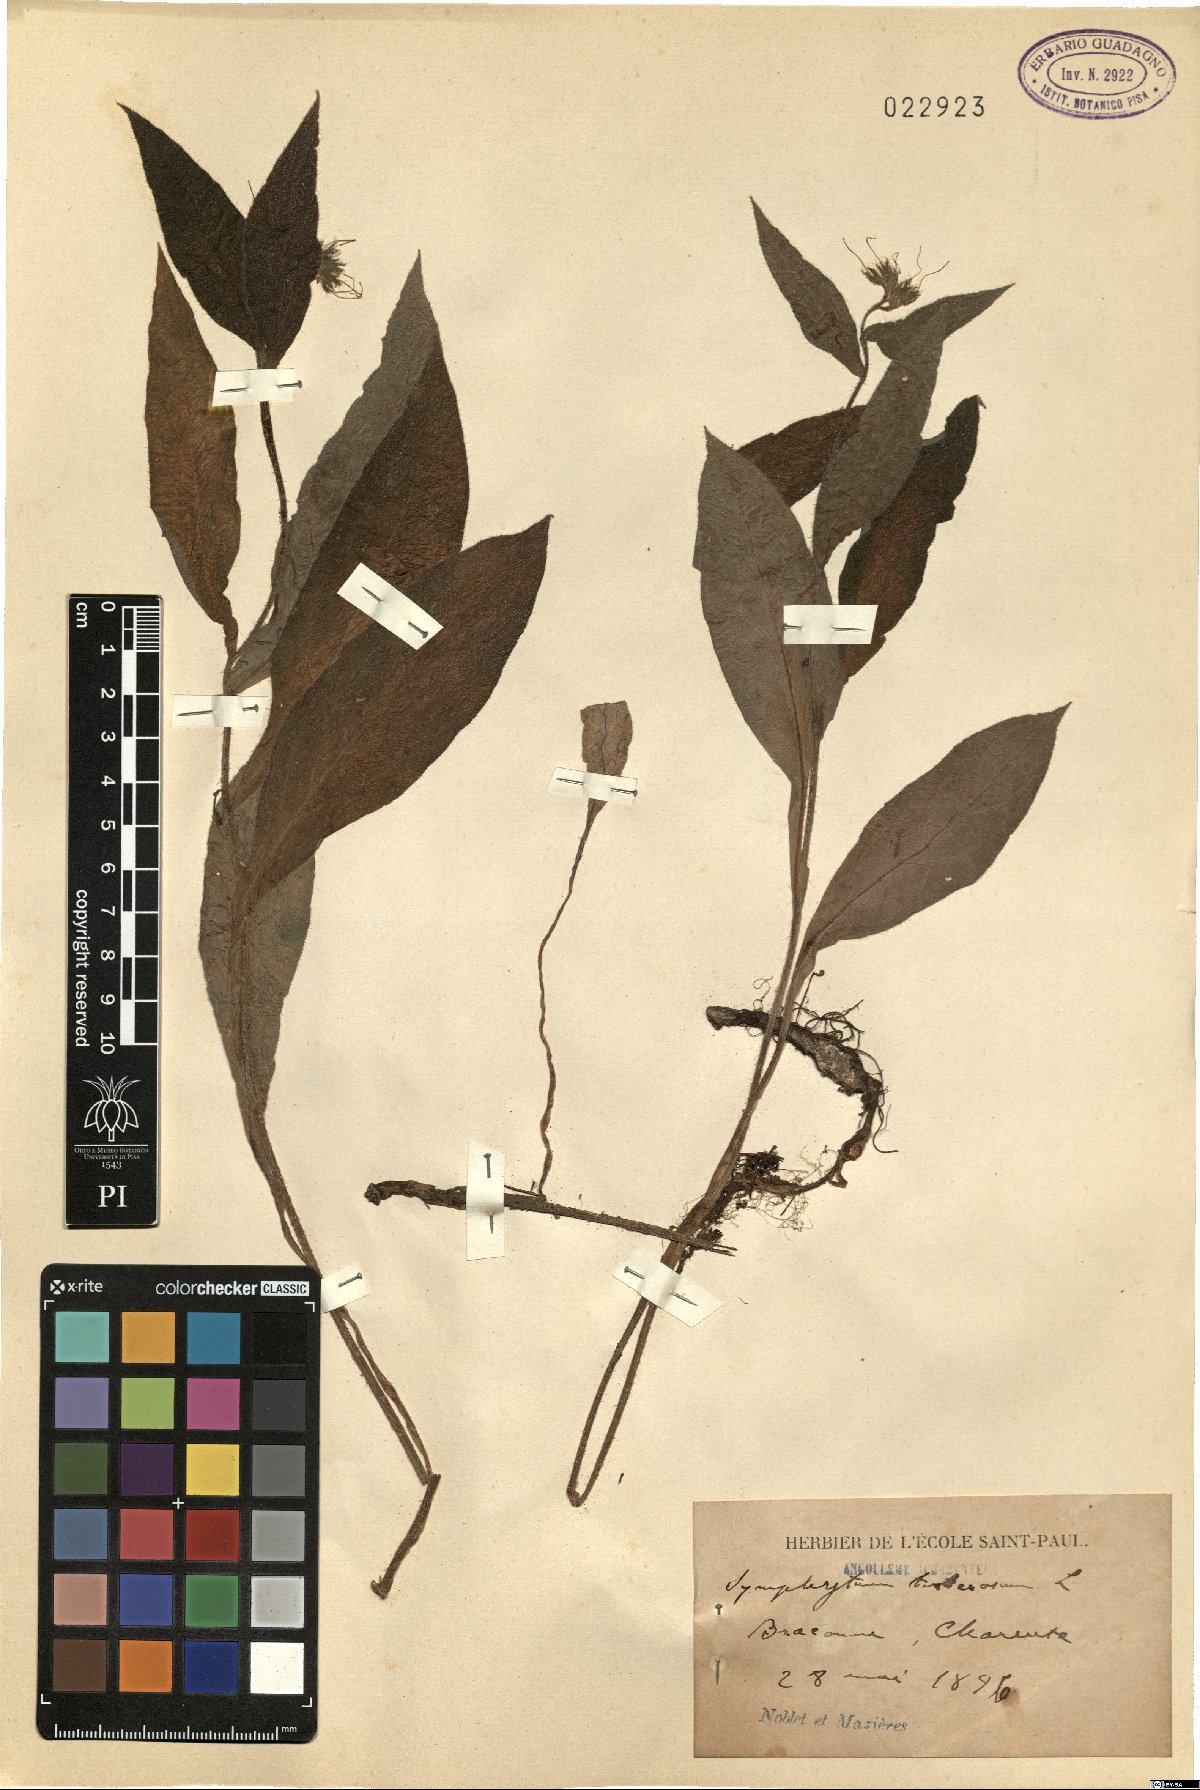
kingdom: Plantae
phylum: Tracheophyta
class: Magnoliopsida
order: Boraginales
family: Boraginaceae
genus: Symphytum
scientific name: Symphytum tuberosum
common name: Tuberous comfrey
